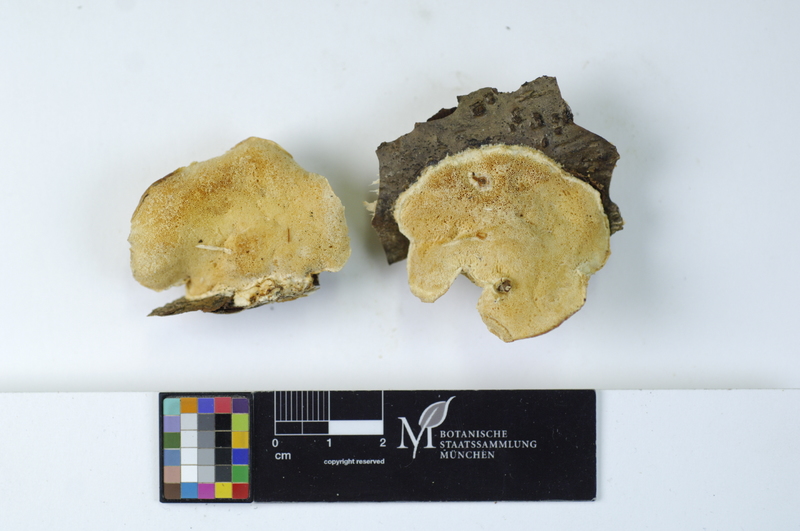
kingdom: Plantae
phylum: Tracheophyta
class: Magnoliopsida
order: Fagales
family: Betulaceae
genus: Corylus
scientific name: Corylus avellana
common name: European hazel
